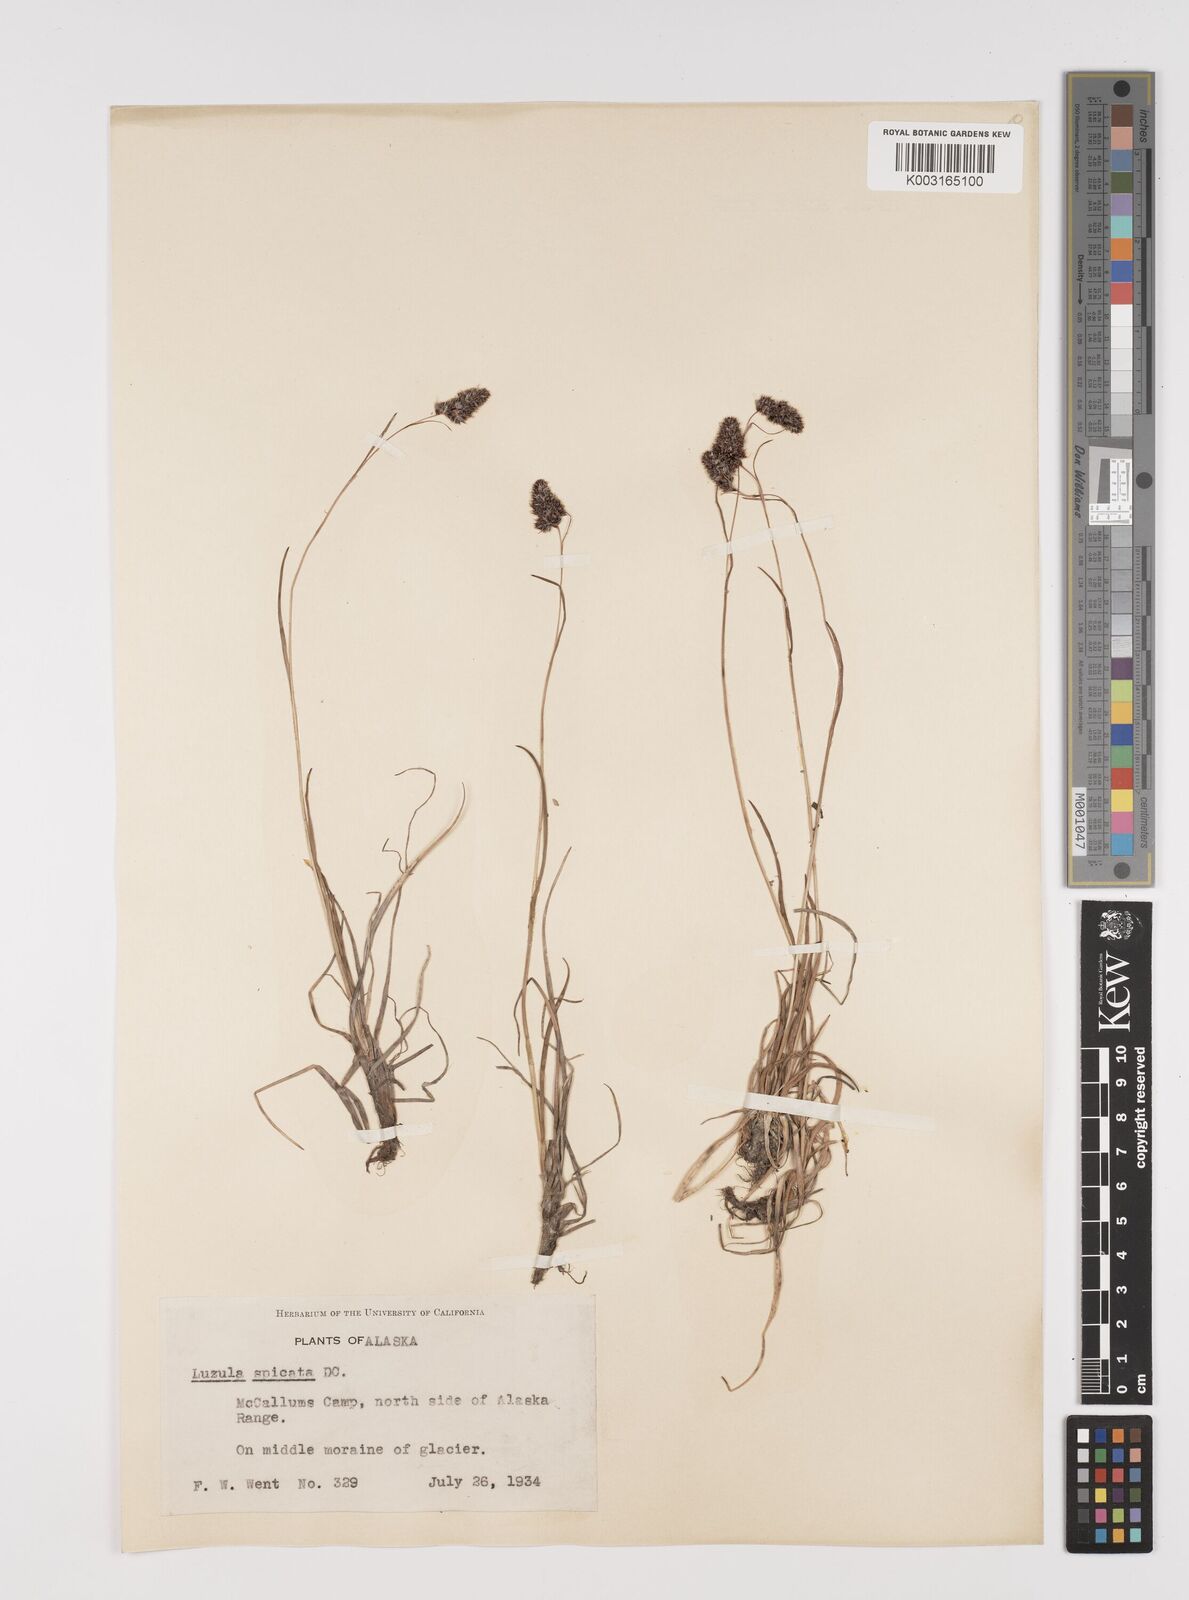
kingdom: Plantae
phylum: Tracheophyta
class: Liliopsida
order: Poales
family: Juncaceae
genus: Luzula
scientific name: Luzula spicata
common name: Spiked wood-rush
